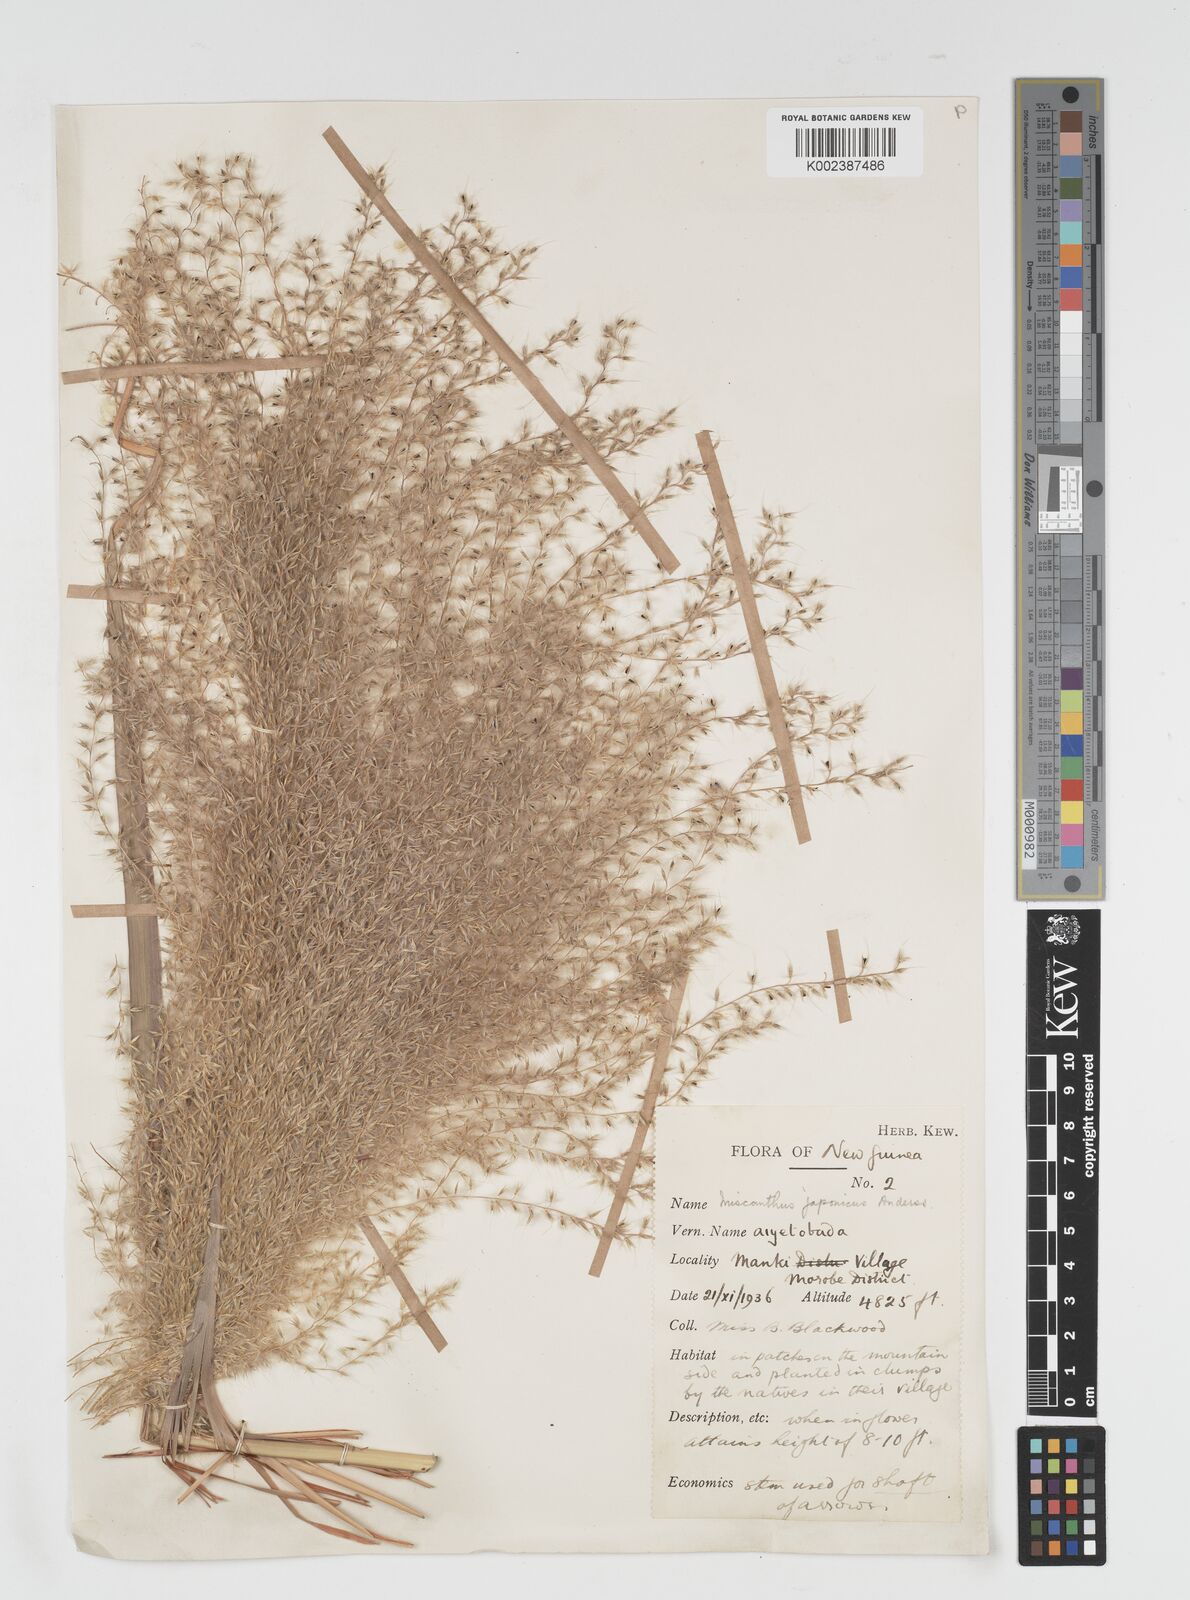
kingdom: Plantae
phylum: Tracheophyta
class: Liliopsida
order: Poales
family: Poaceae
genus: Miscanthus
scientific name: Miscanthus floridulus
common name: Pacific island silvergrass
